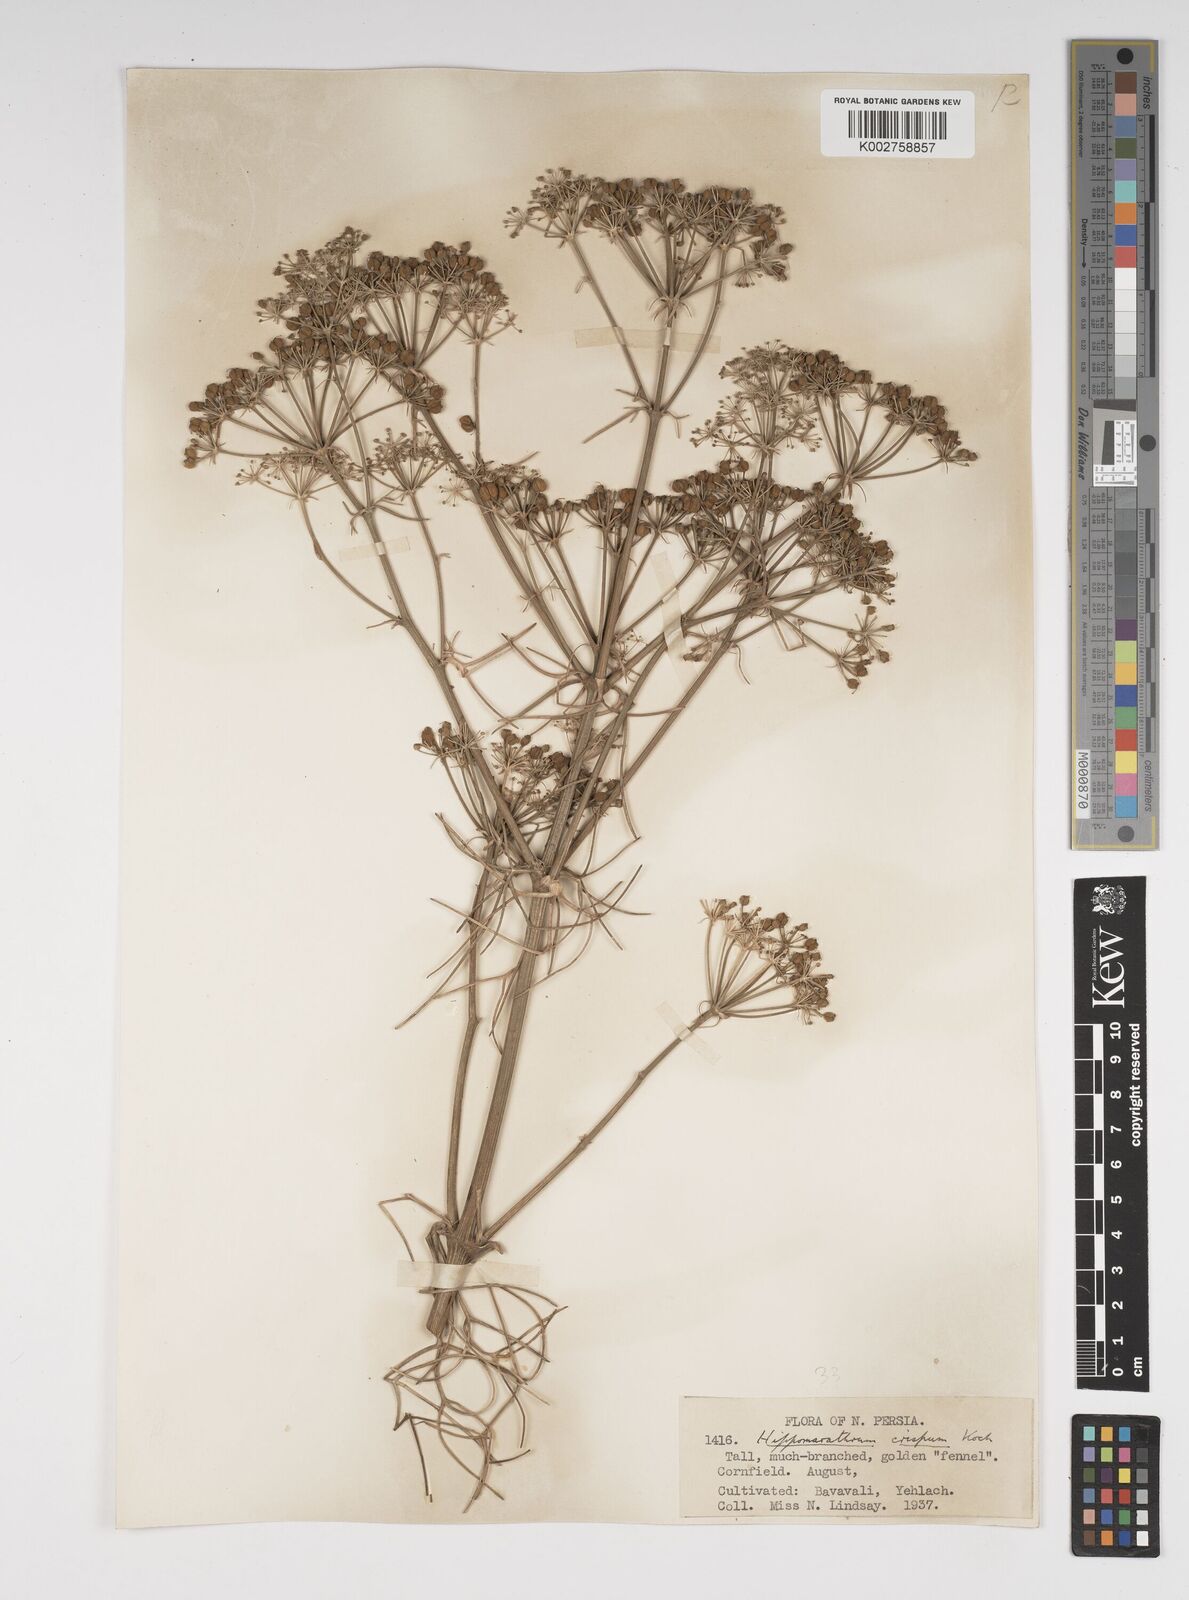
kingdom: Plantae
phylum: Tracheophyta
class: Magnoliopsida
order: Apiales
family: Apiaceae
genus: Cachrys
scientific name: Cachrys
